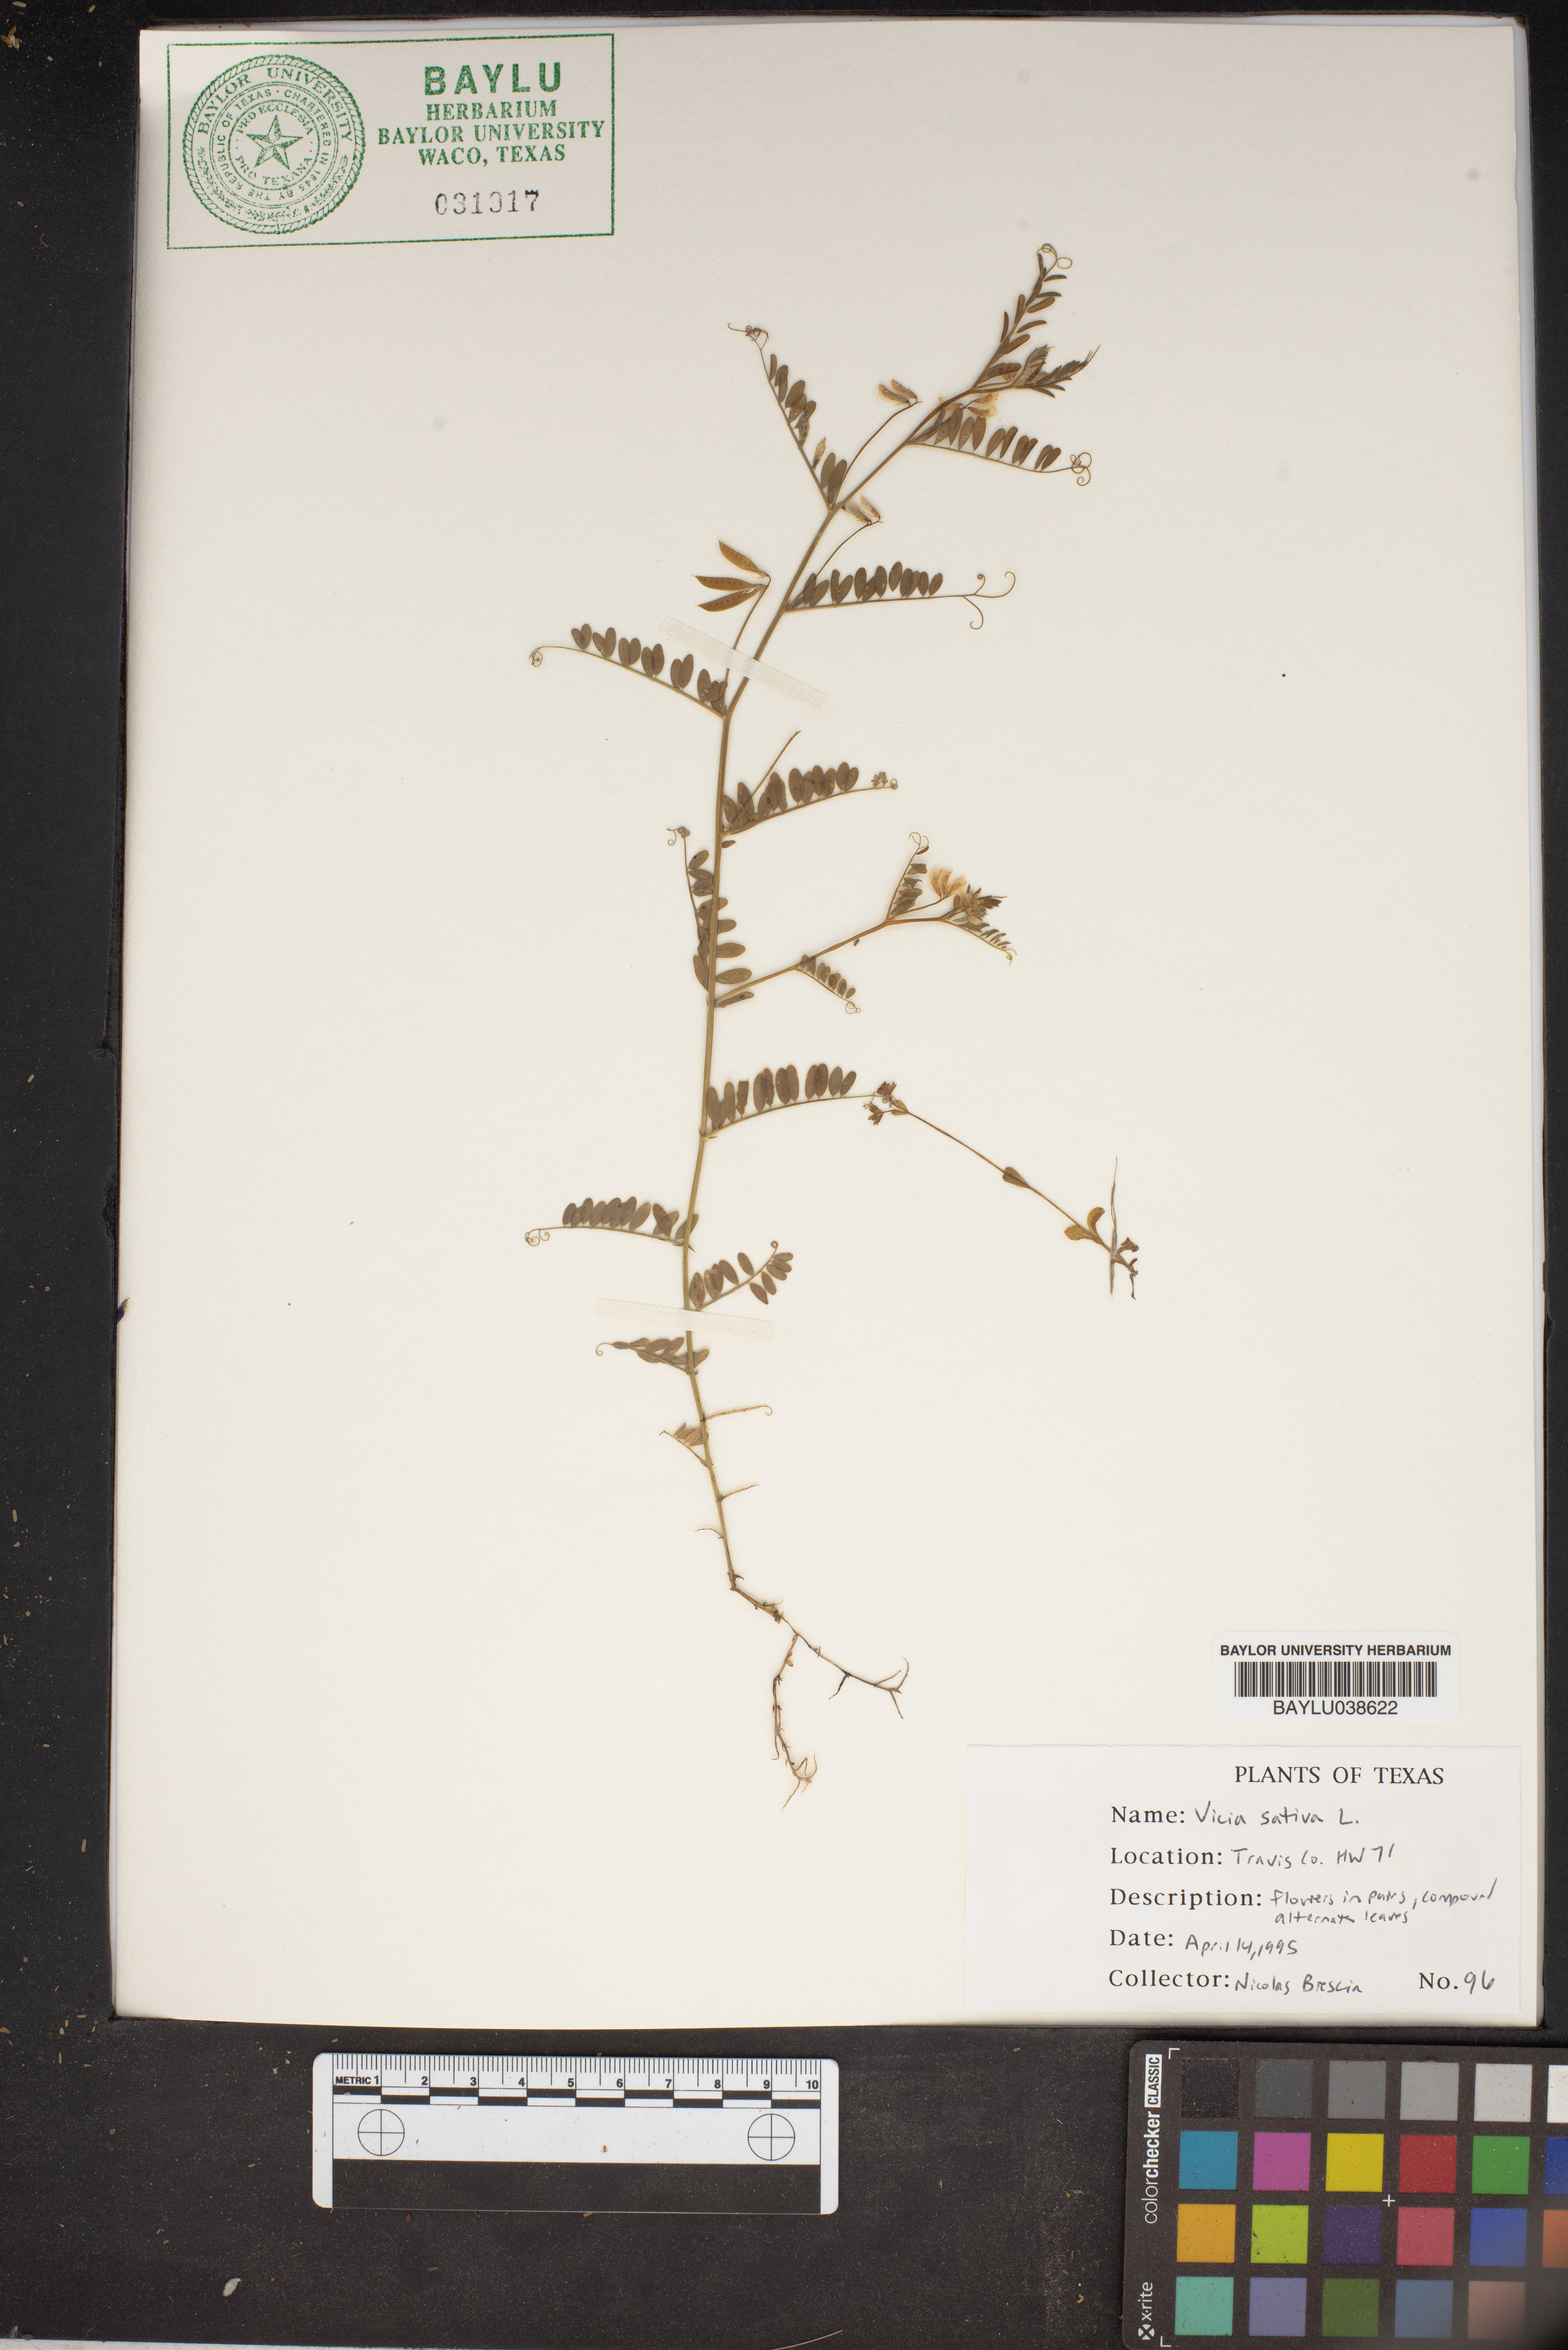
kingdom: Plantae
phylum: Tracheophyta
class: Magnoliopsida
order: Fabales
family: Fabaceae
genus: Vicia
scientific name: Vicia sativa
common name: Garden vetch
